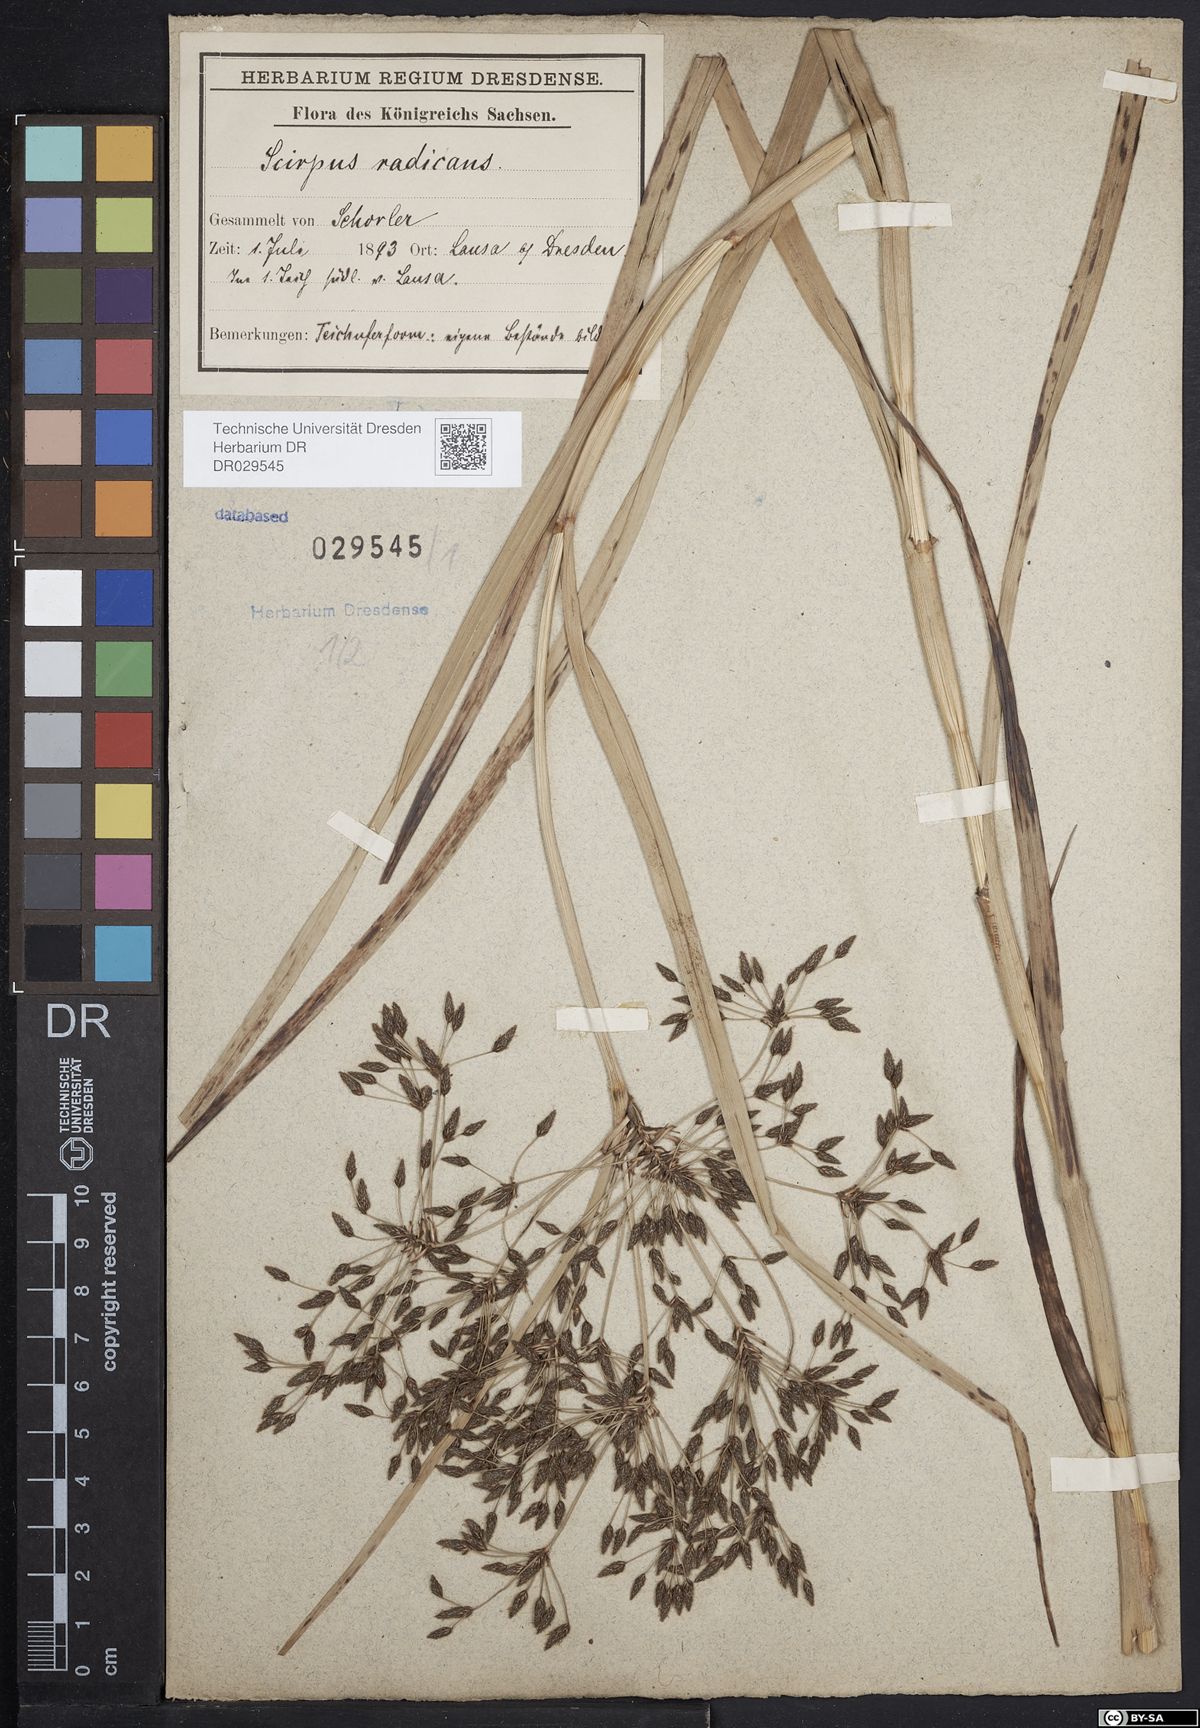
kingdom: Plantae
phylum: Tracheophyta
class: Liliopsida
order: Poales
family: Cyperaceae
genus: Scirpus
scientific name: Scirpus radicans
